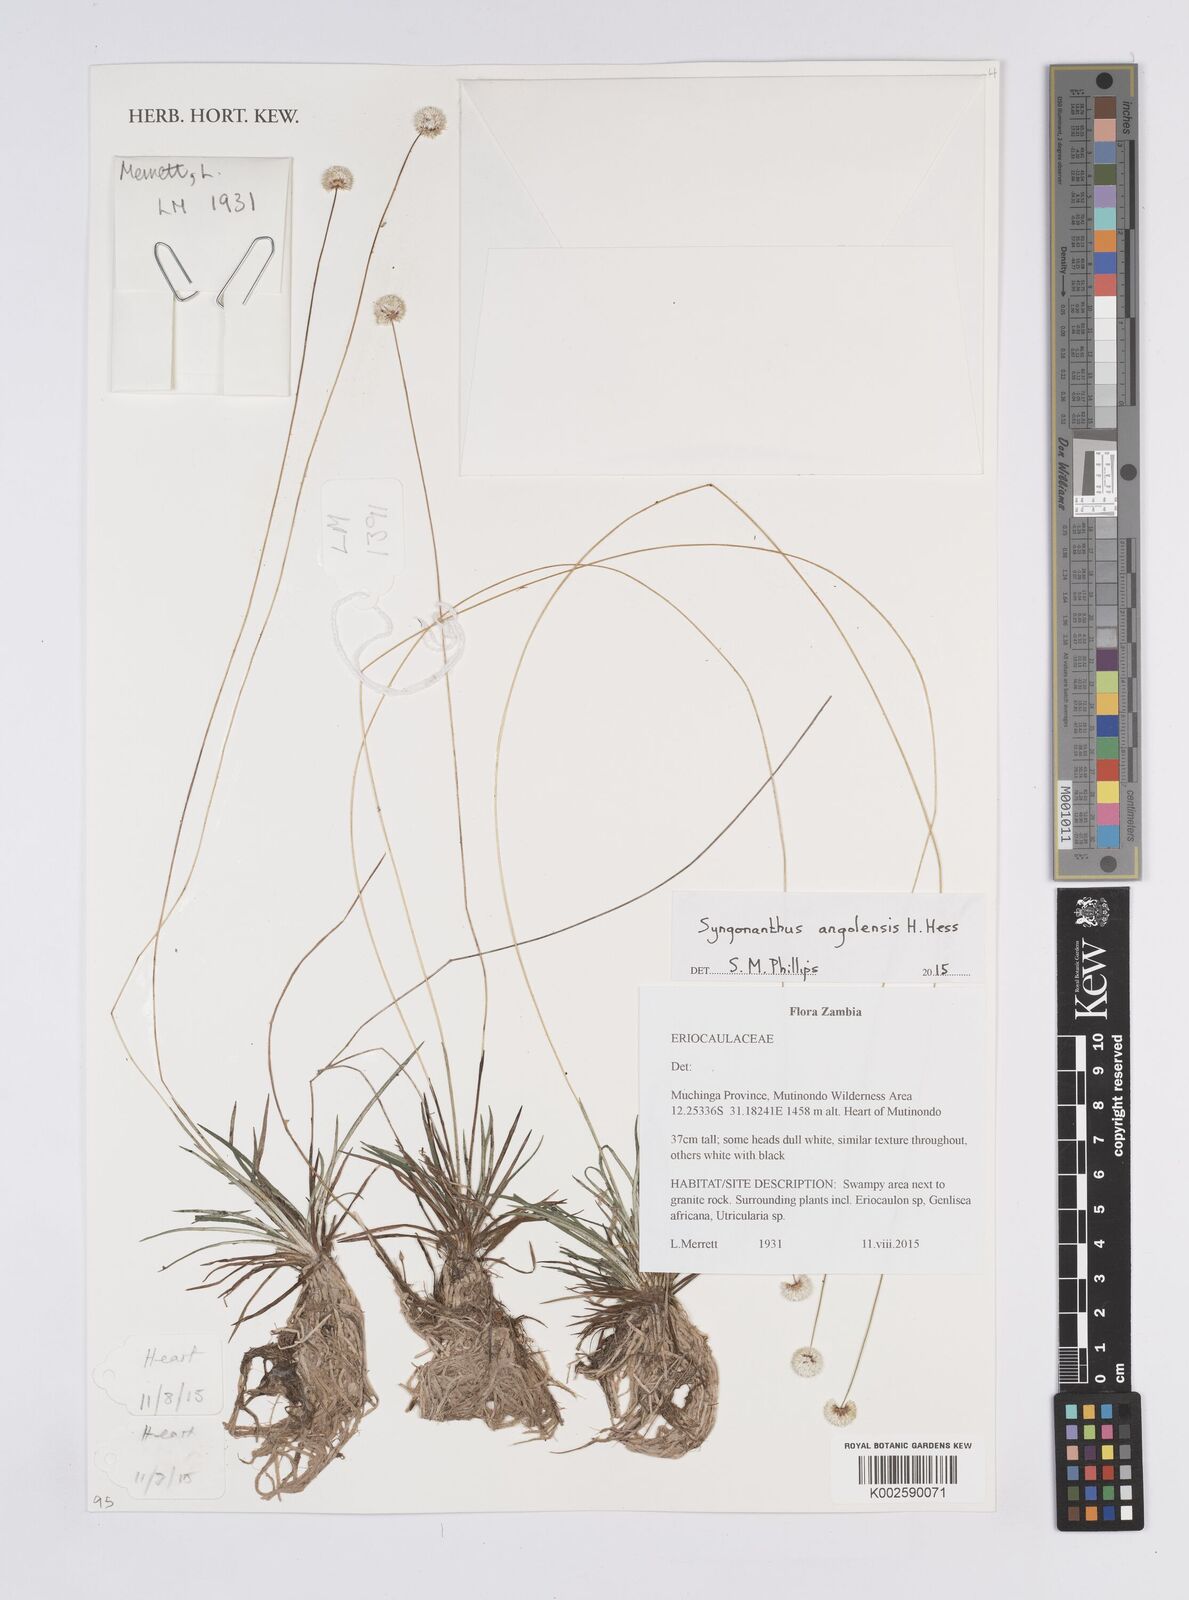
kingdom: Plantae
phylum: Tracheophyta
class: Liliopsida
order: Poales
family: Eriocaulaceae
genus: Syngonanthus
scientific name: Syngonanthus angolensis
